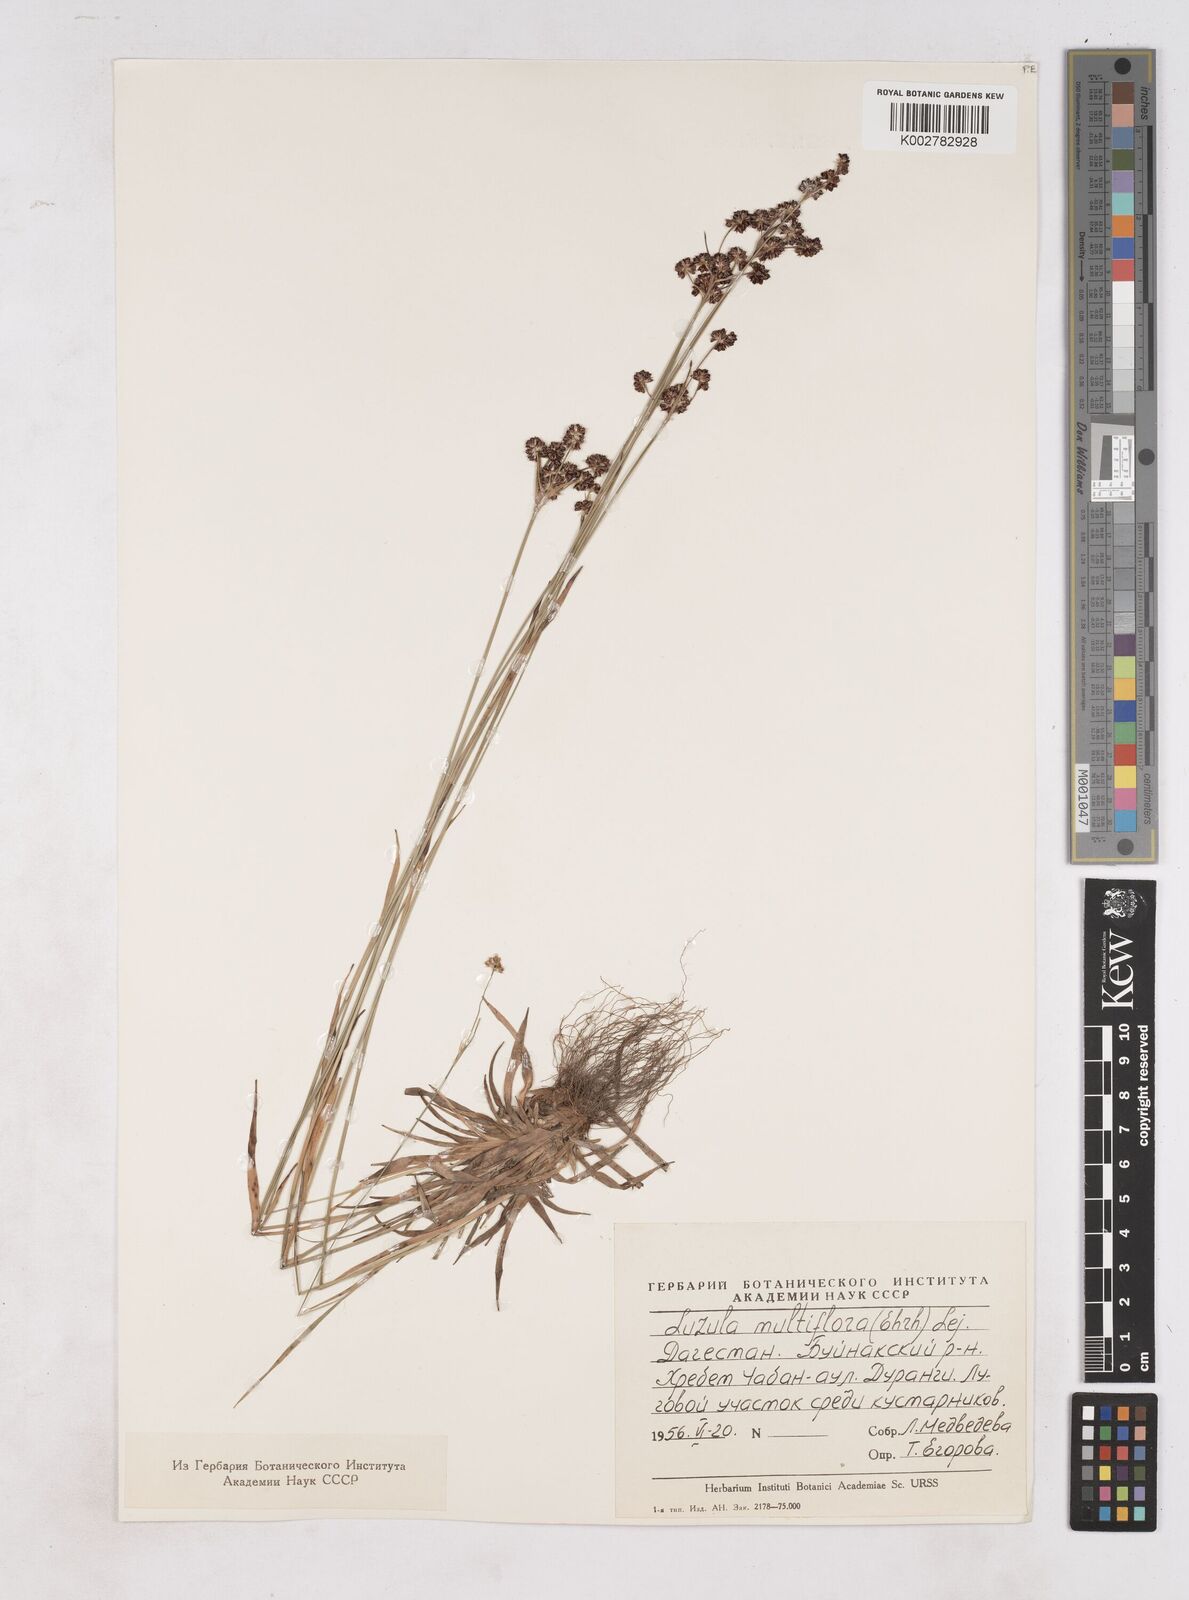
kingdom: Plantae
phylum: Tracheophyta
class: Liliopsida
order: Poales
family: Juncaceae
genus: Luzula
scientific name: Luzula campestris
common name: Field wood-rush
